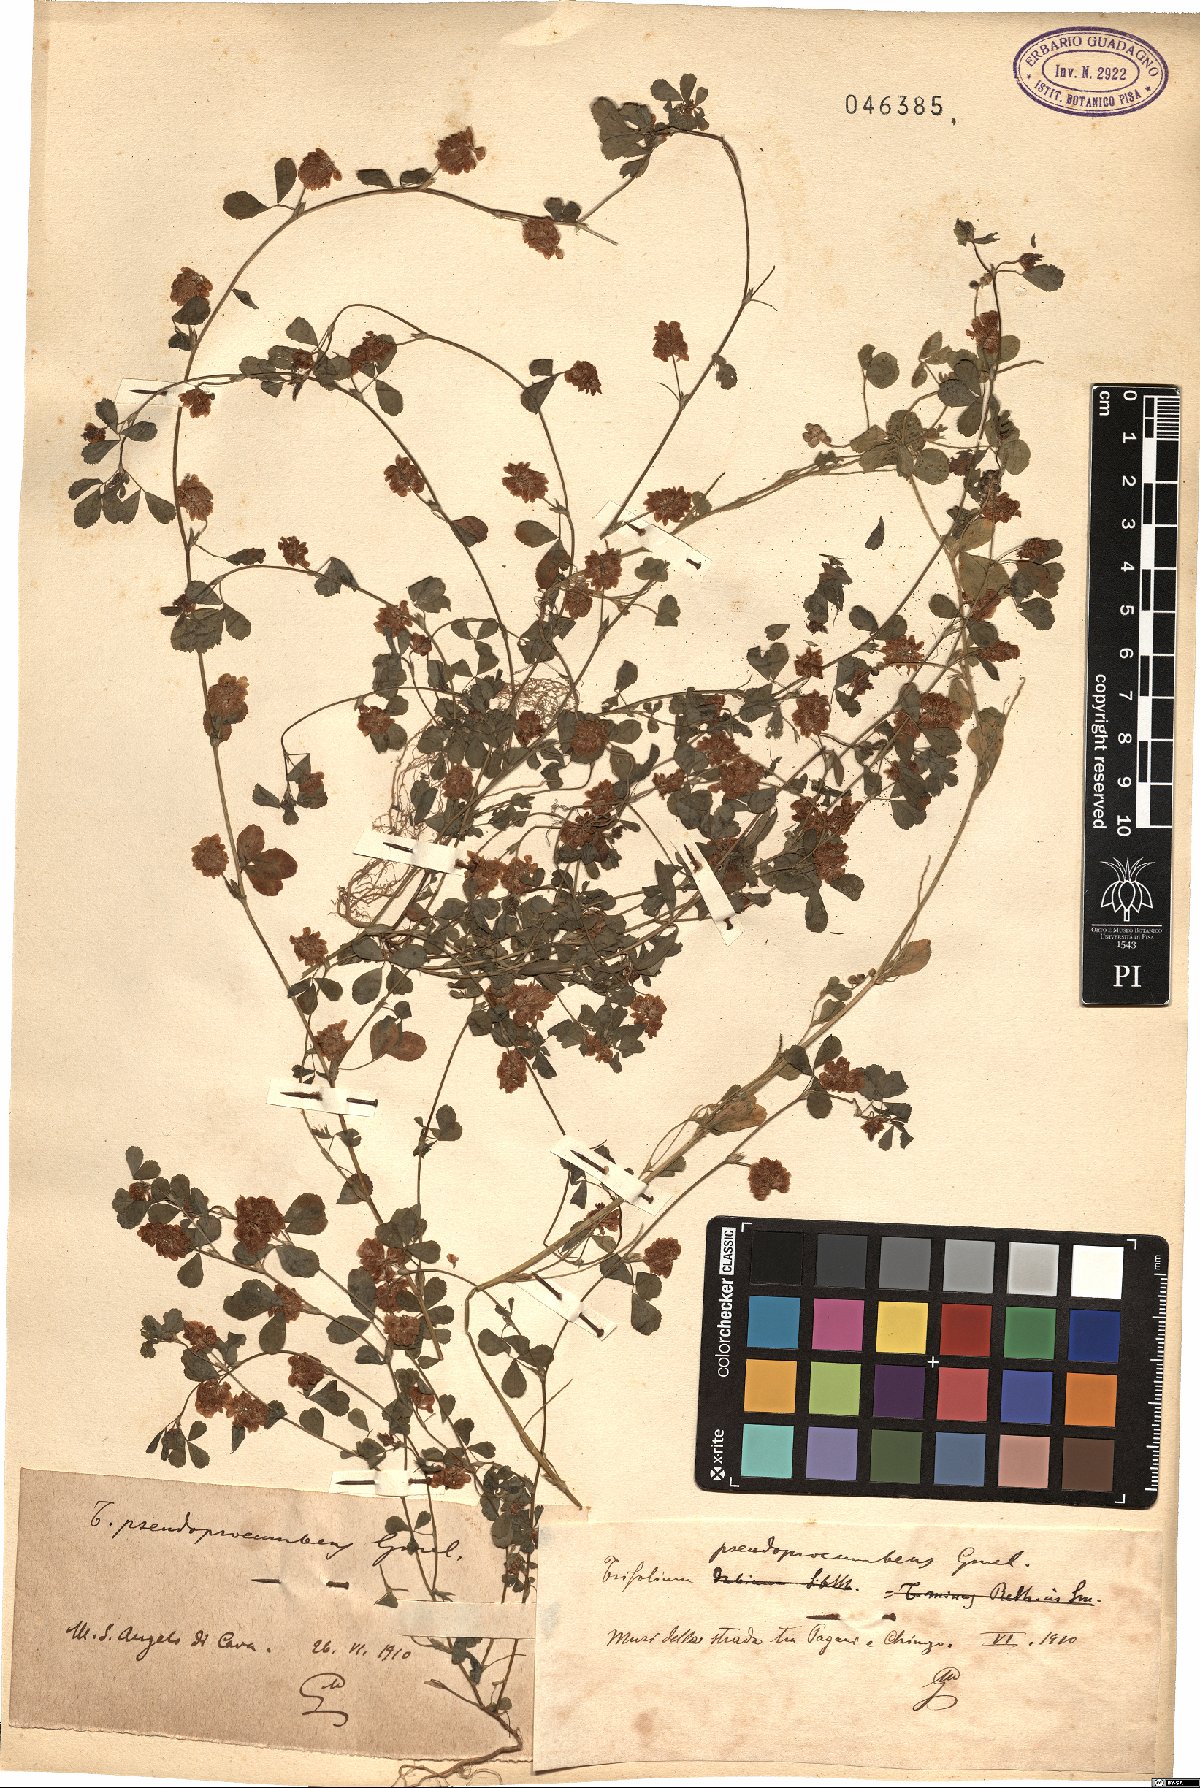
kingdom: Plantae
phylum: Tracheophyta
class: Magnoliopsida
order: Fabales
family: Fabaceae
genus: Trifolium
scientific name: Trifolium campestre
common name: Field clover
